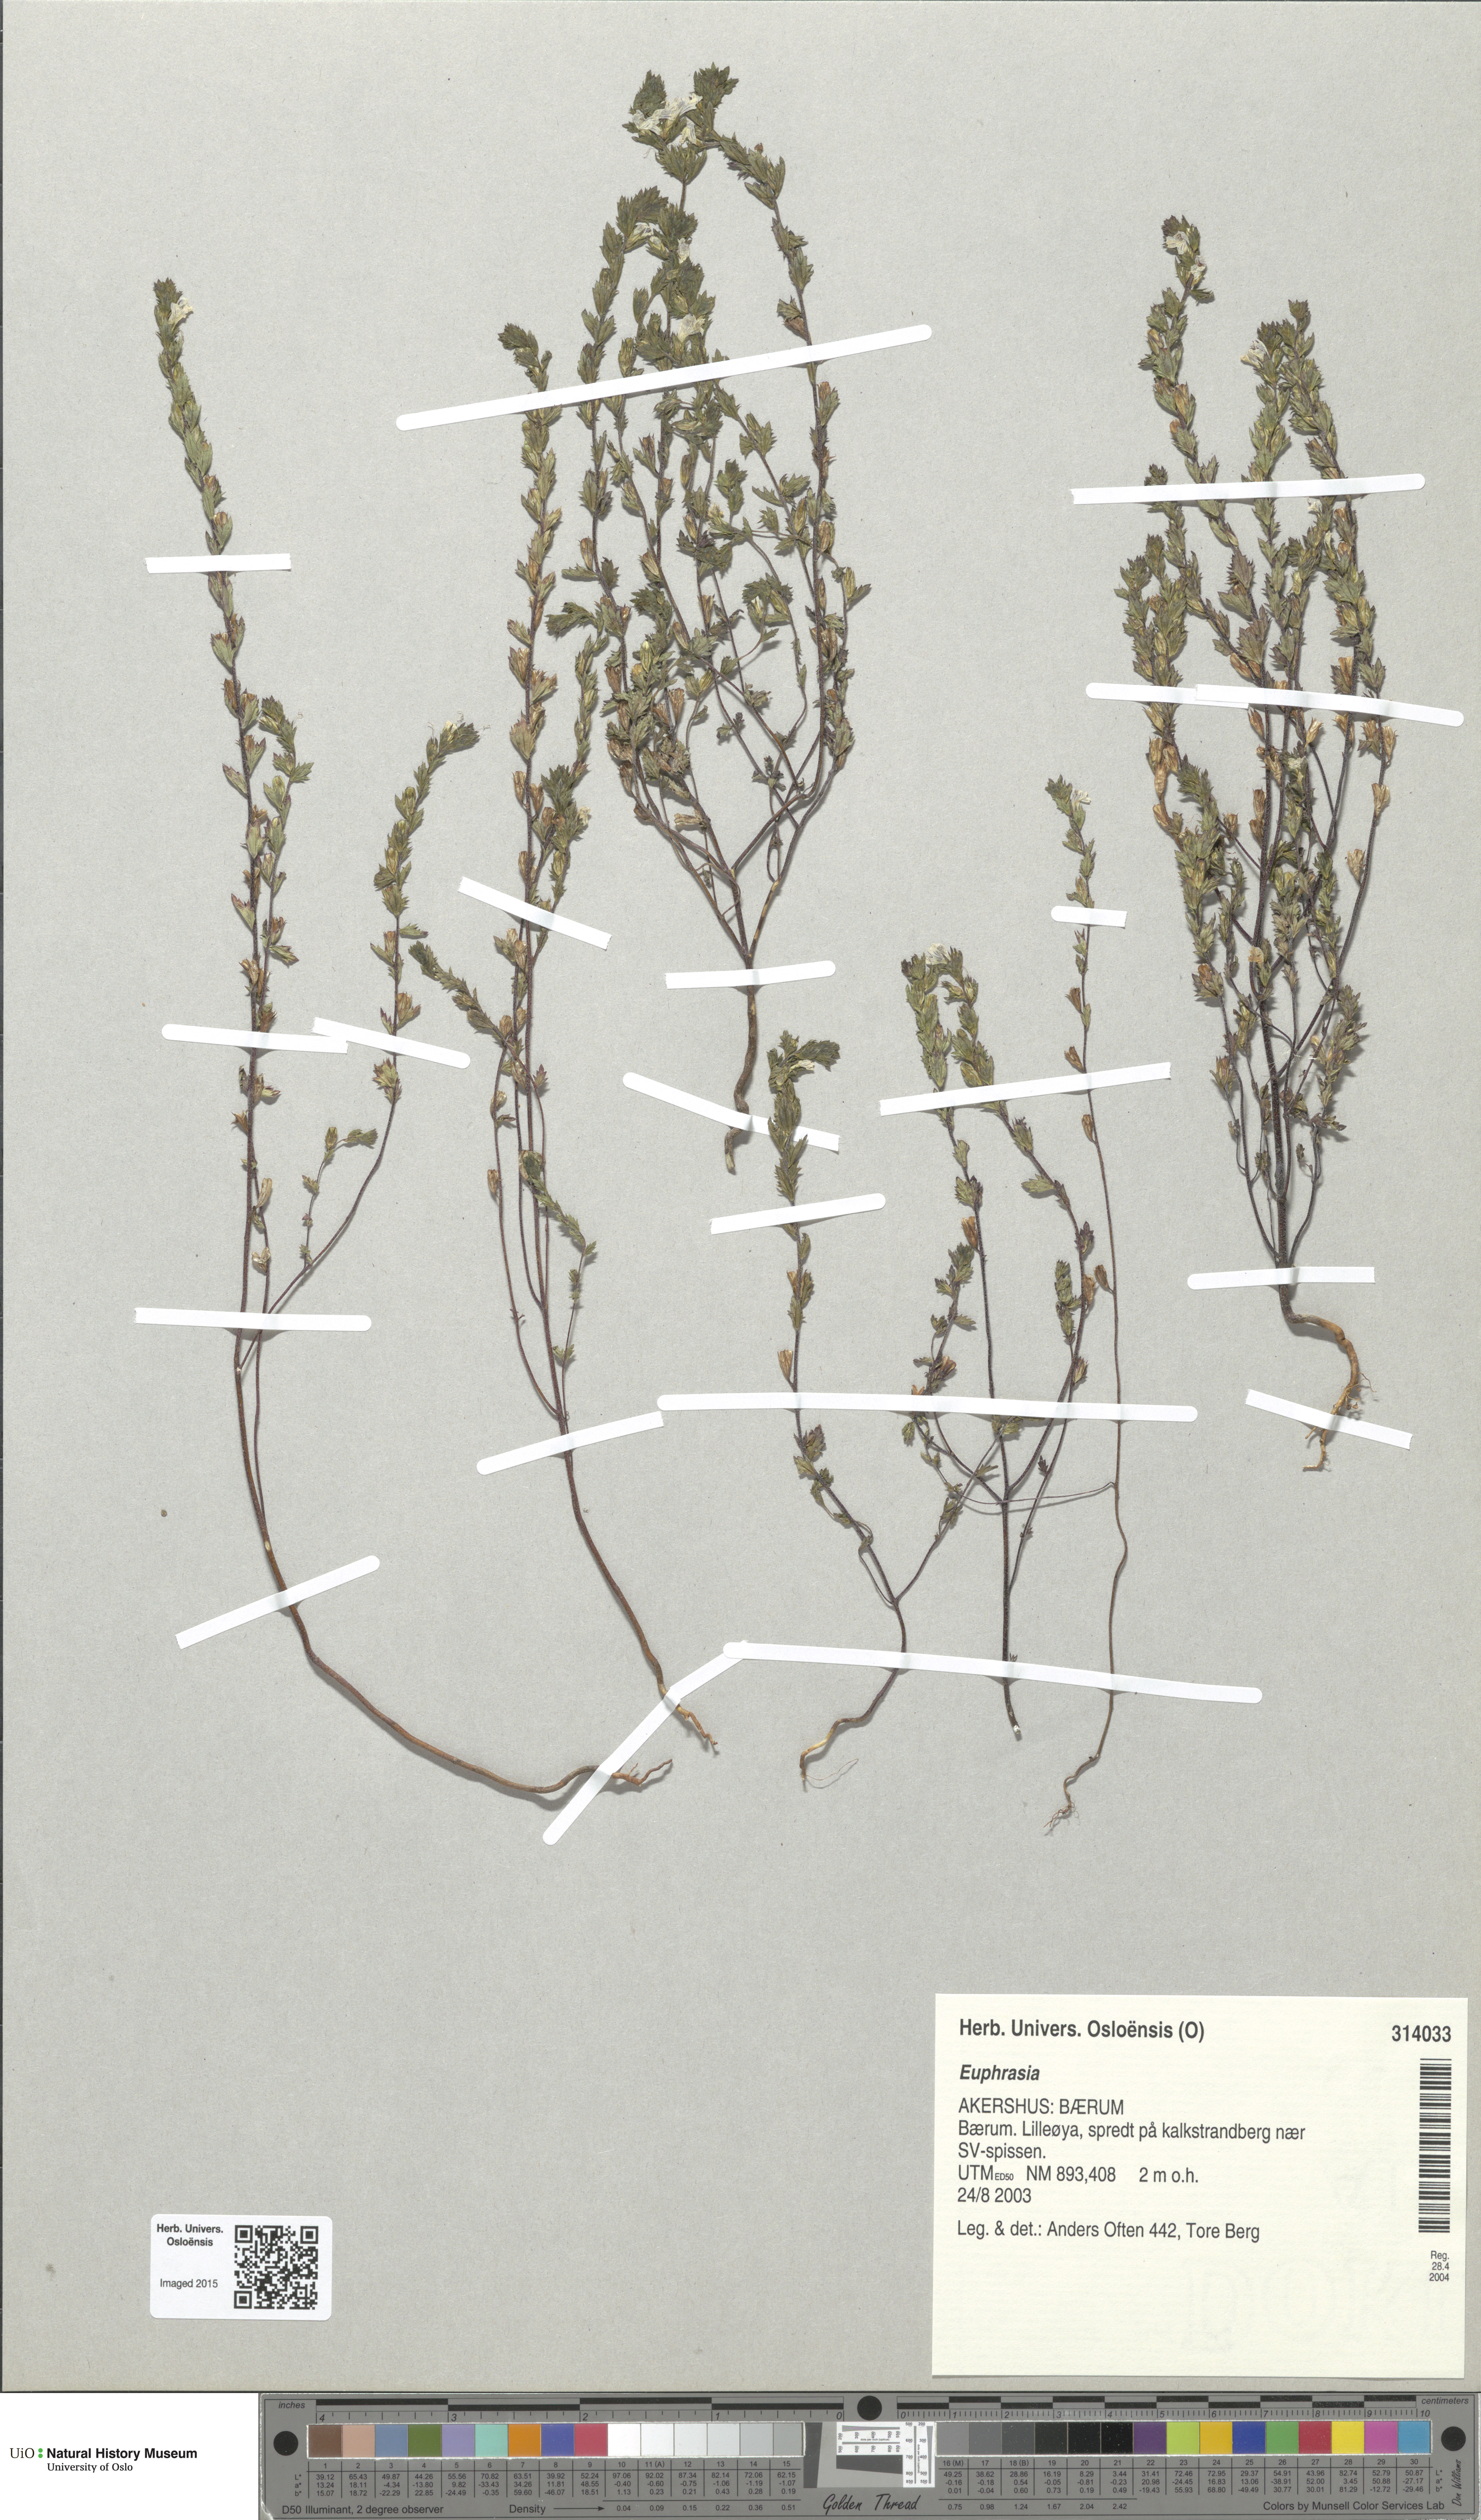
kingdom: Plantae
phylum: Tracheophyta
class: Magnoliopsida
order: Lamiales
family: Orobanchaceae
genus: Euphrasia
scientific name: Euphrasia
